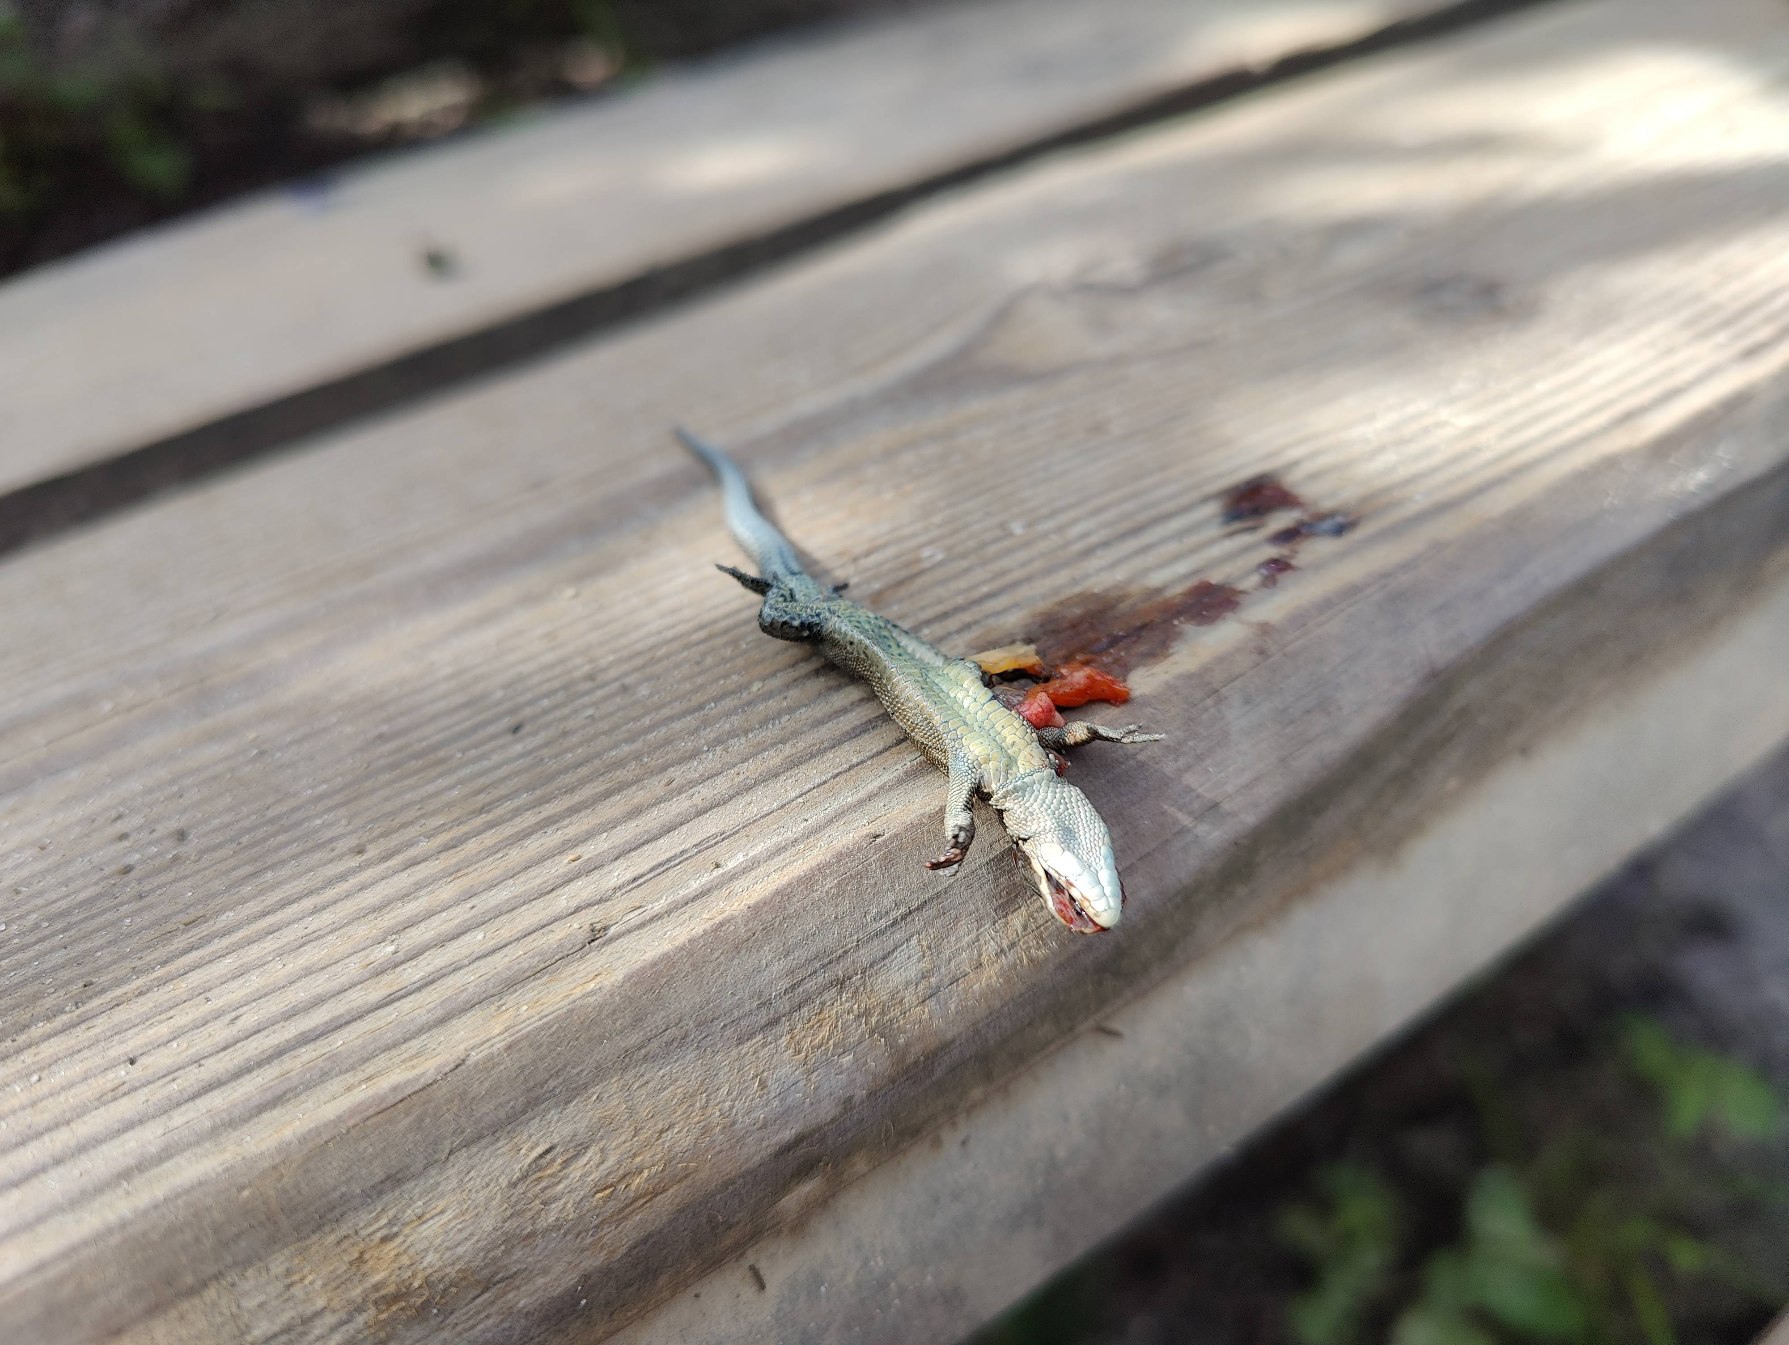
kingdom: Animalia
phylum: Chordata
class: Squamata
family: Lacertidae
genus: Zootoca
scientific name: Zootoca vivipara
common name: Skovfirben
